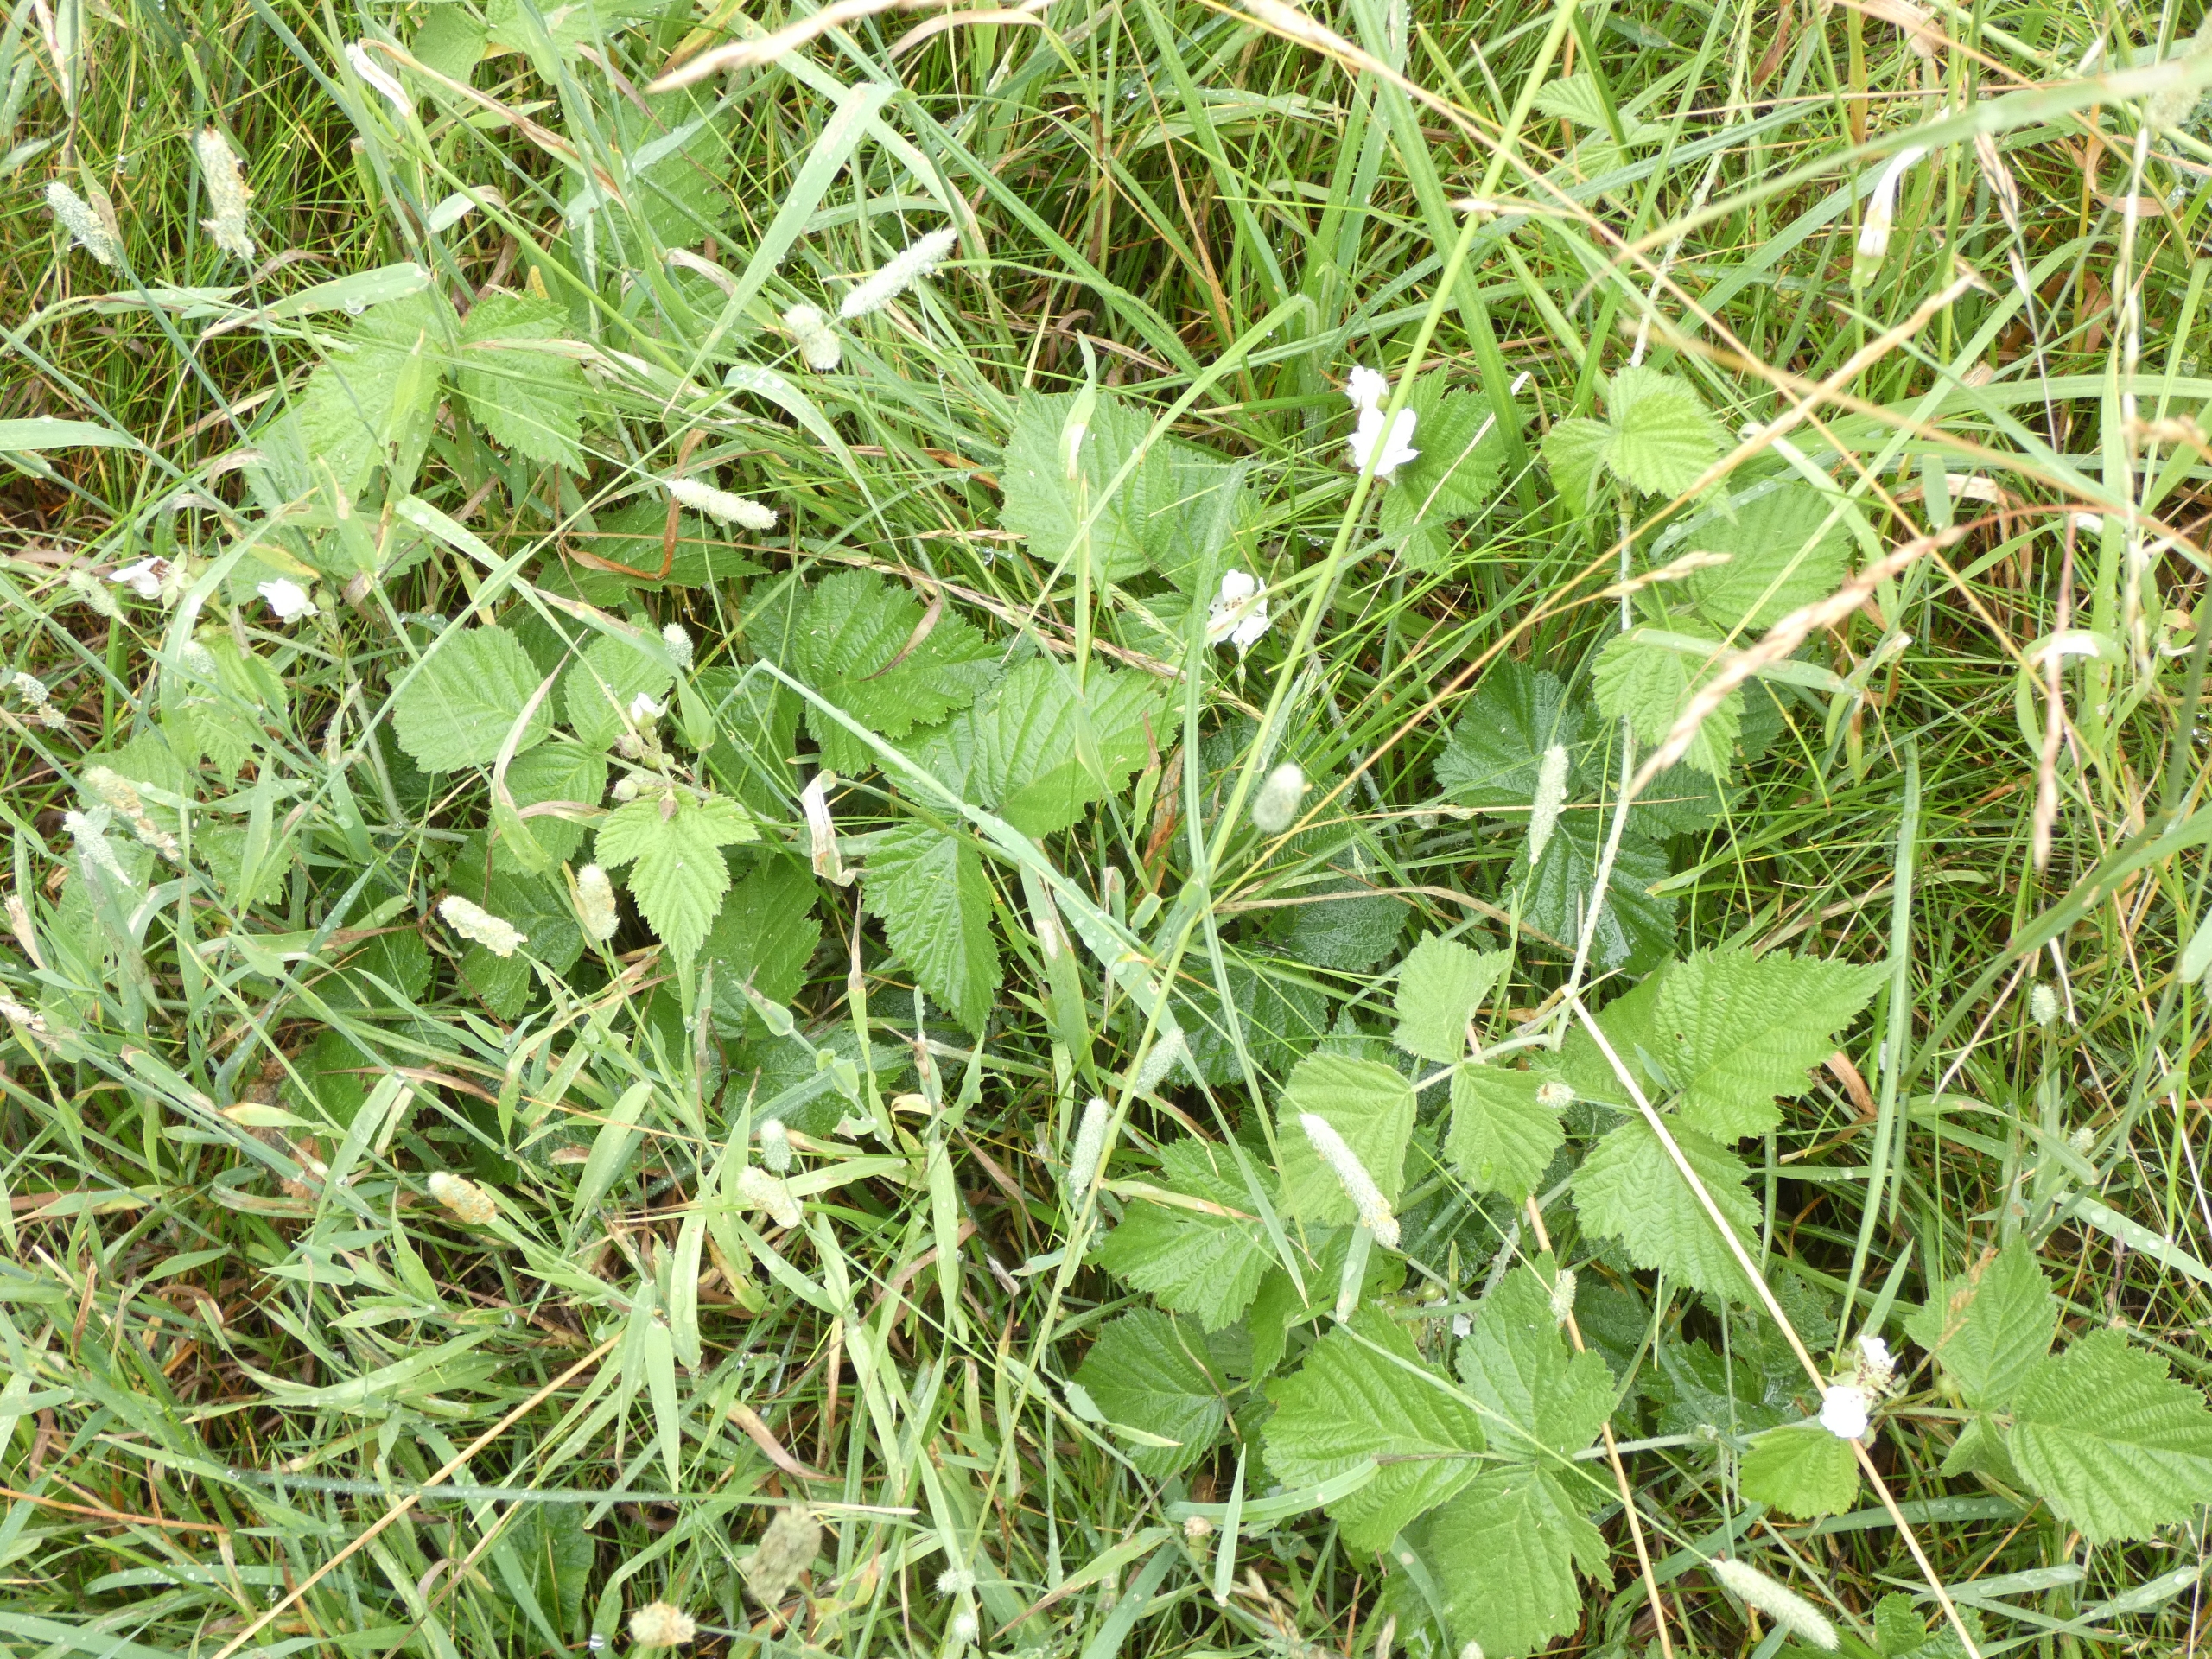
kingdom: Plantae
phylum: Tracheophyta
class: Magnoliopsida
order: Rosales
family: Rosaceae
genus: Rubus
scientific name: Rubus caesius
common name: Korbær
